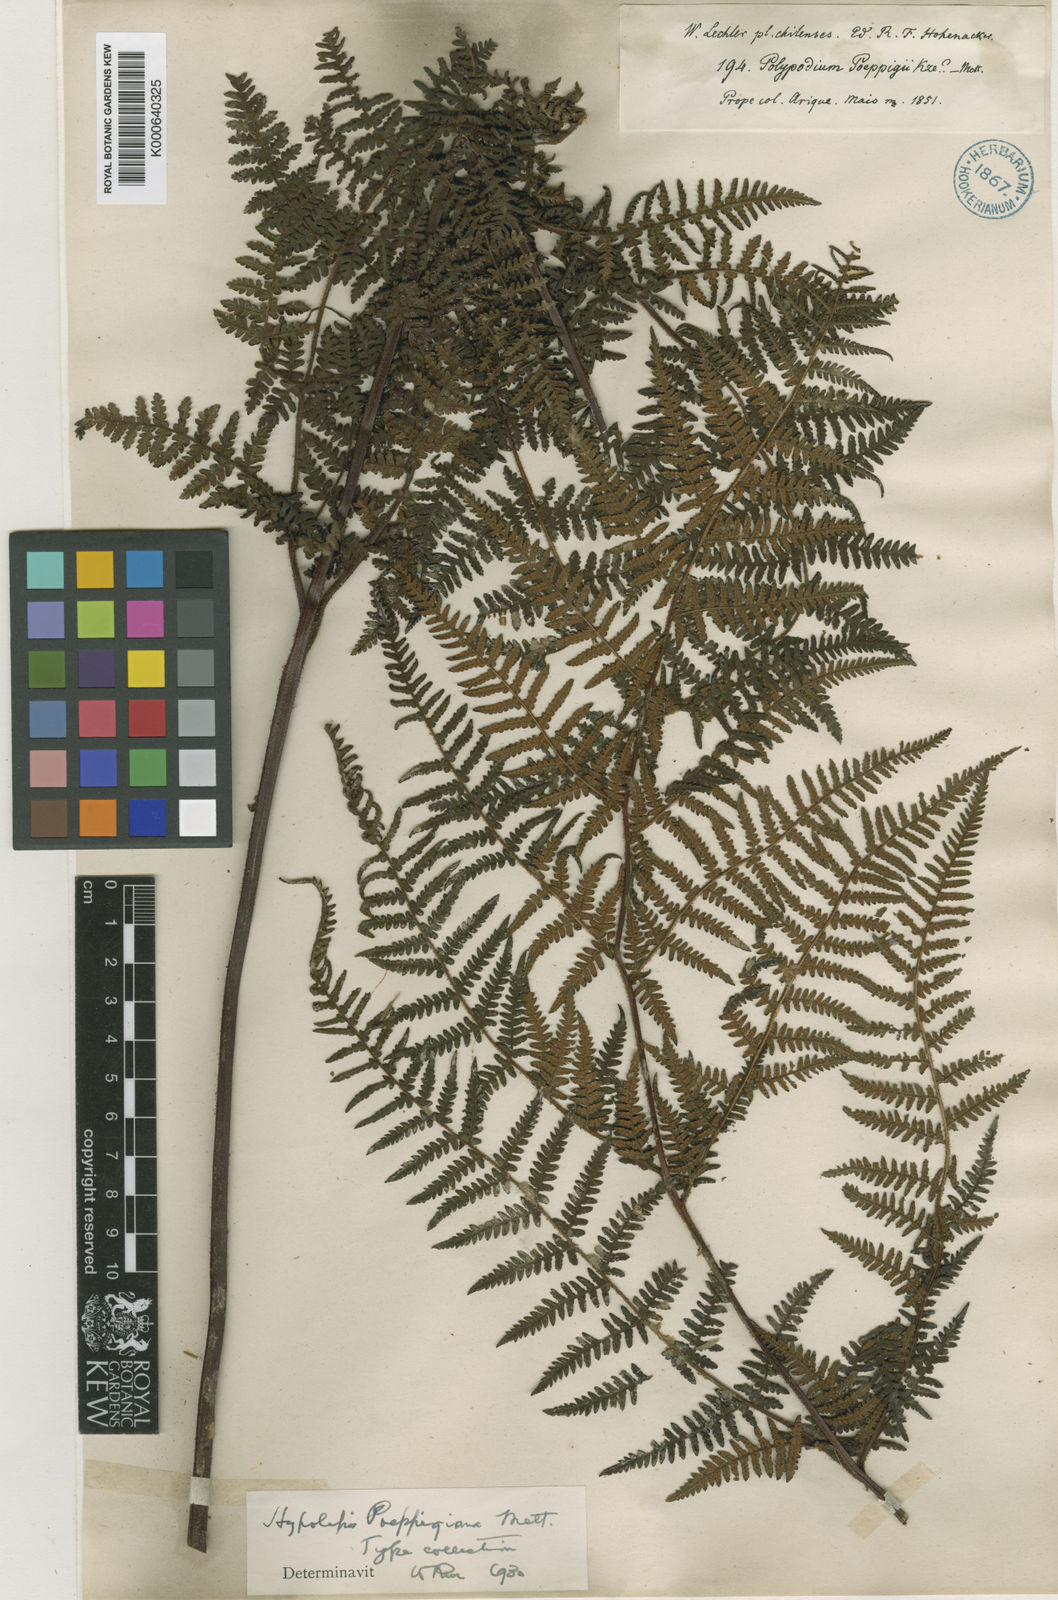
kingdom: Plantae
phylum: Tracheophyta
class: Polypodiopsida
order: Polypodiales
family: Dennstaedtiaceae
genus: Hypolepis
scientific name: Hypolepis rugosula
